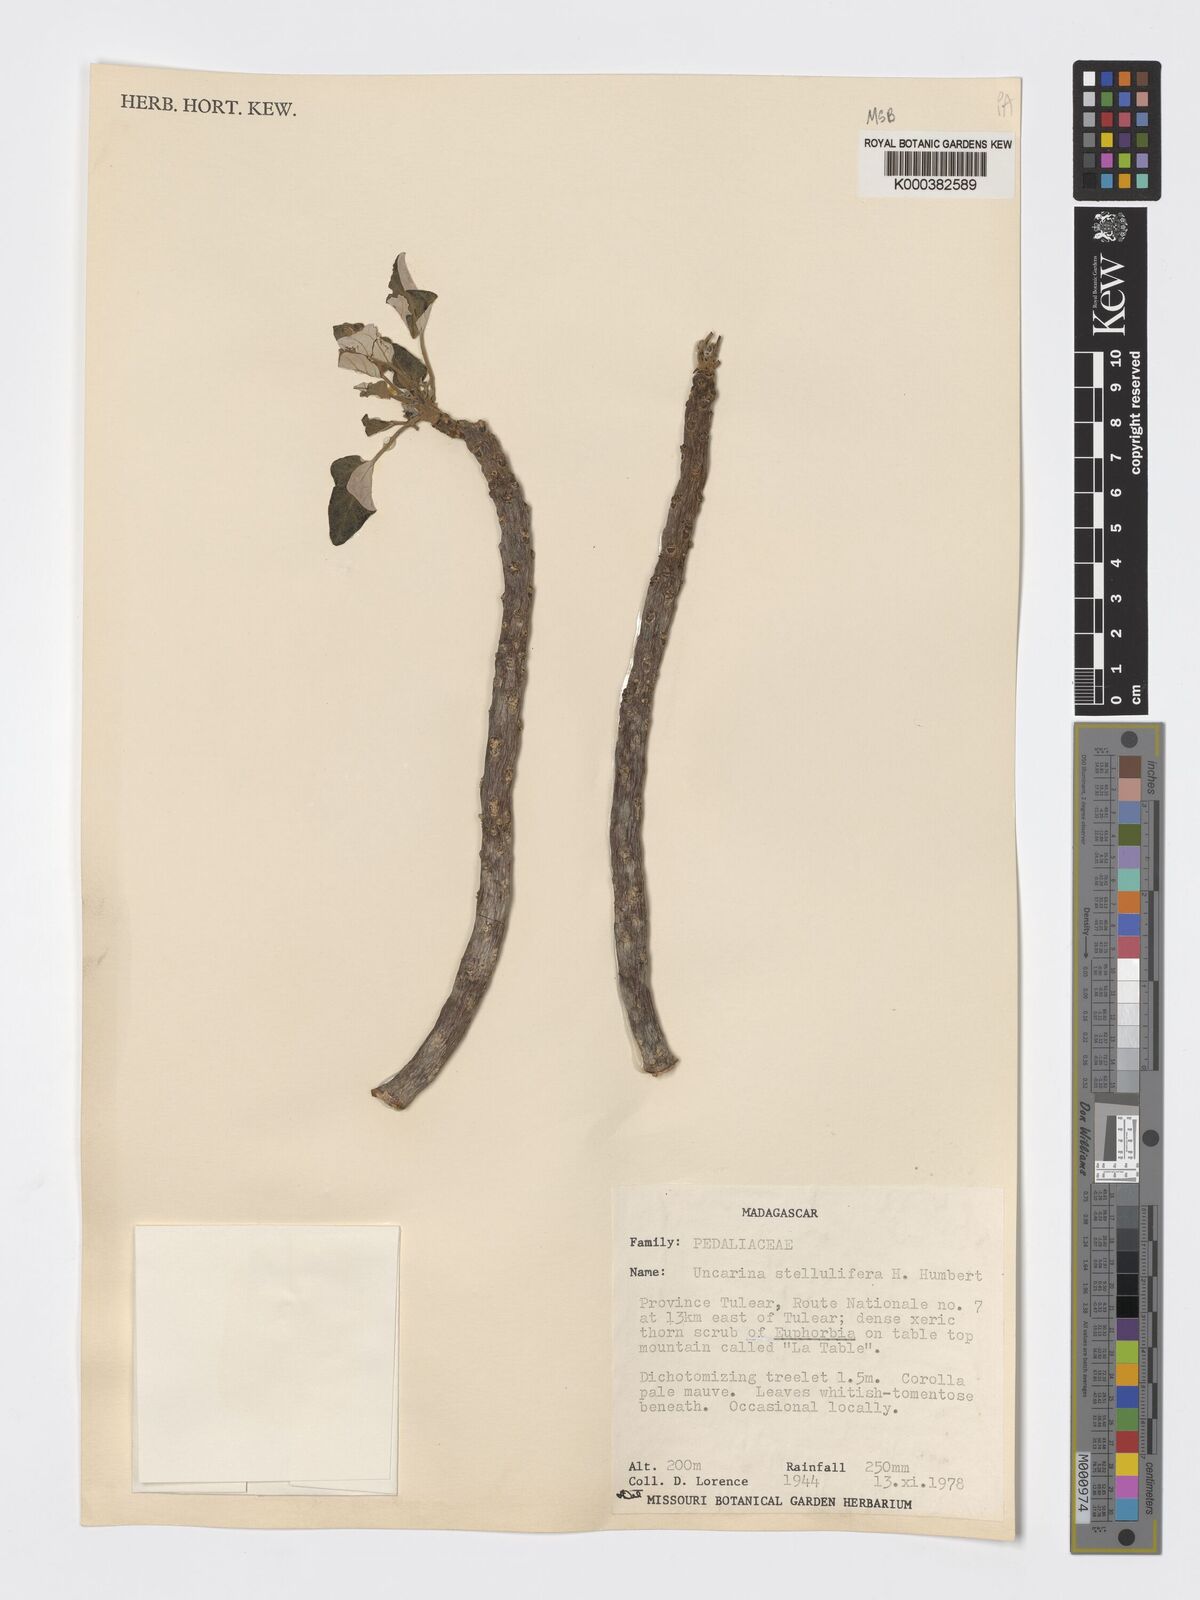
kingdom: Plantae
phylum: Tracheophyta
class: Magnoliopsida
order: Lamiales
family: Pedaliaceae
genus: Uncarina
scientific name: Uncarina stellulifera
